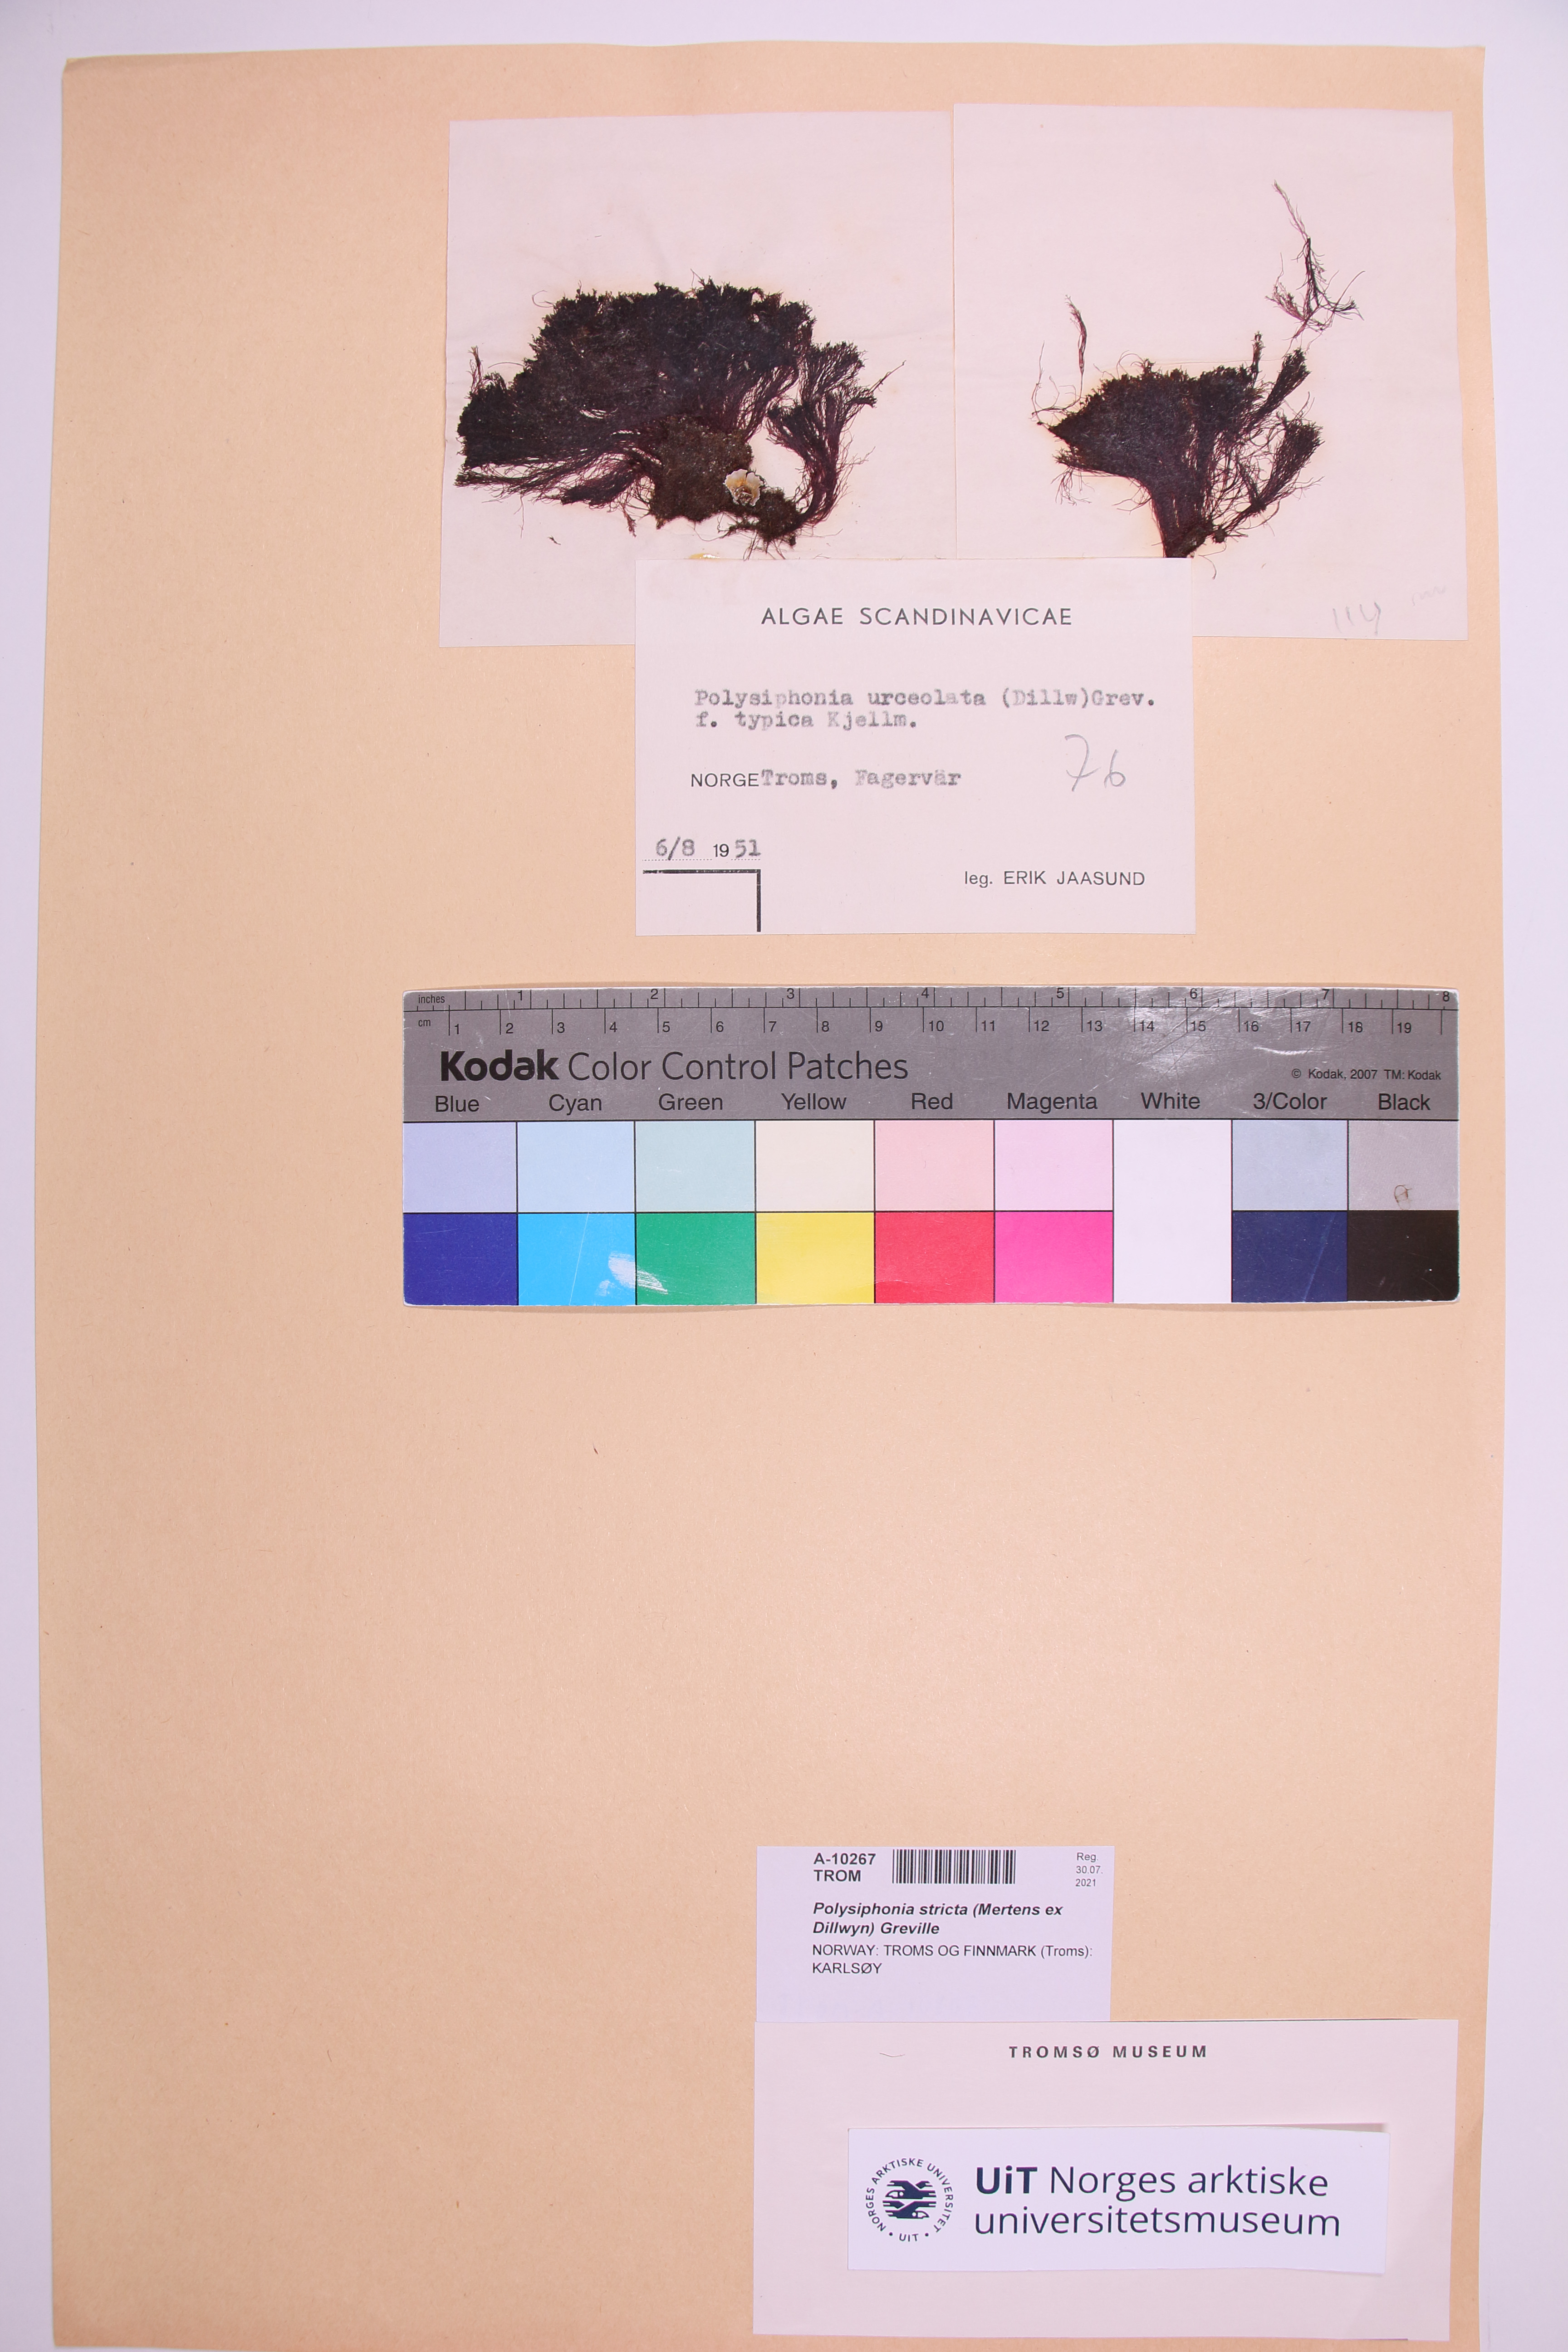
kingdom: Plantae
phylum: Rhodophyta
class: Florideophyceae
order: Ceramiales
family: Rhodomelaceae
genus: Polysiphonia
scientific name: Polysiphonia stricta
